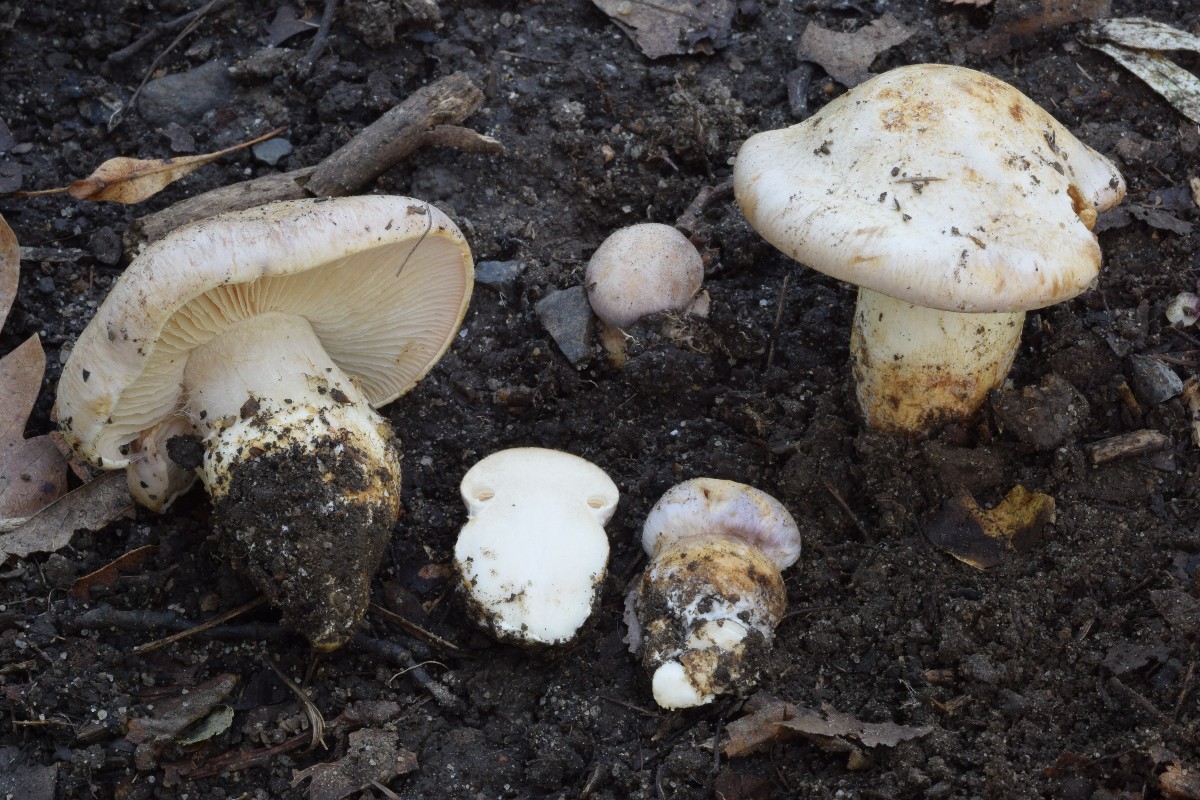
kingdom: Fungi
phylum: Basidiomycota
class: Agaricomycetes
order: Agaricales
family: Cortinariaceae
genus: Phlegmacium
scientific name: Phlegmacium daulnoyae
